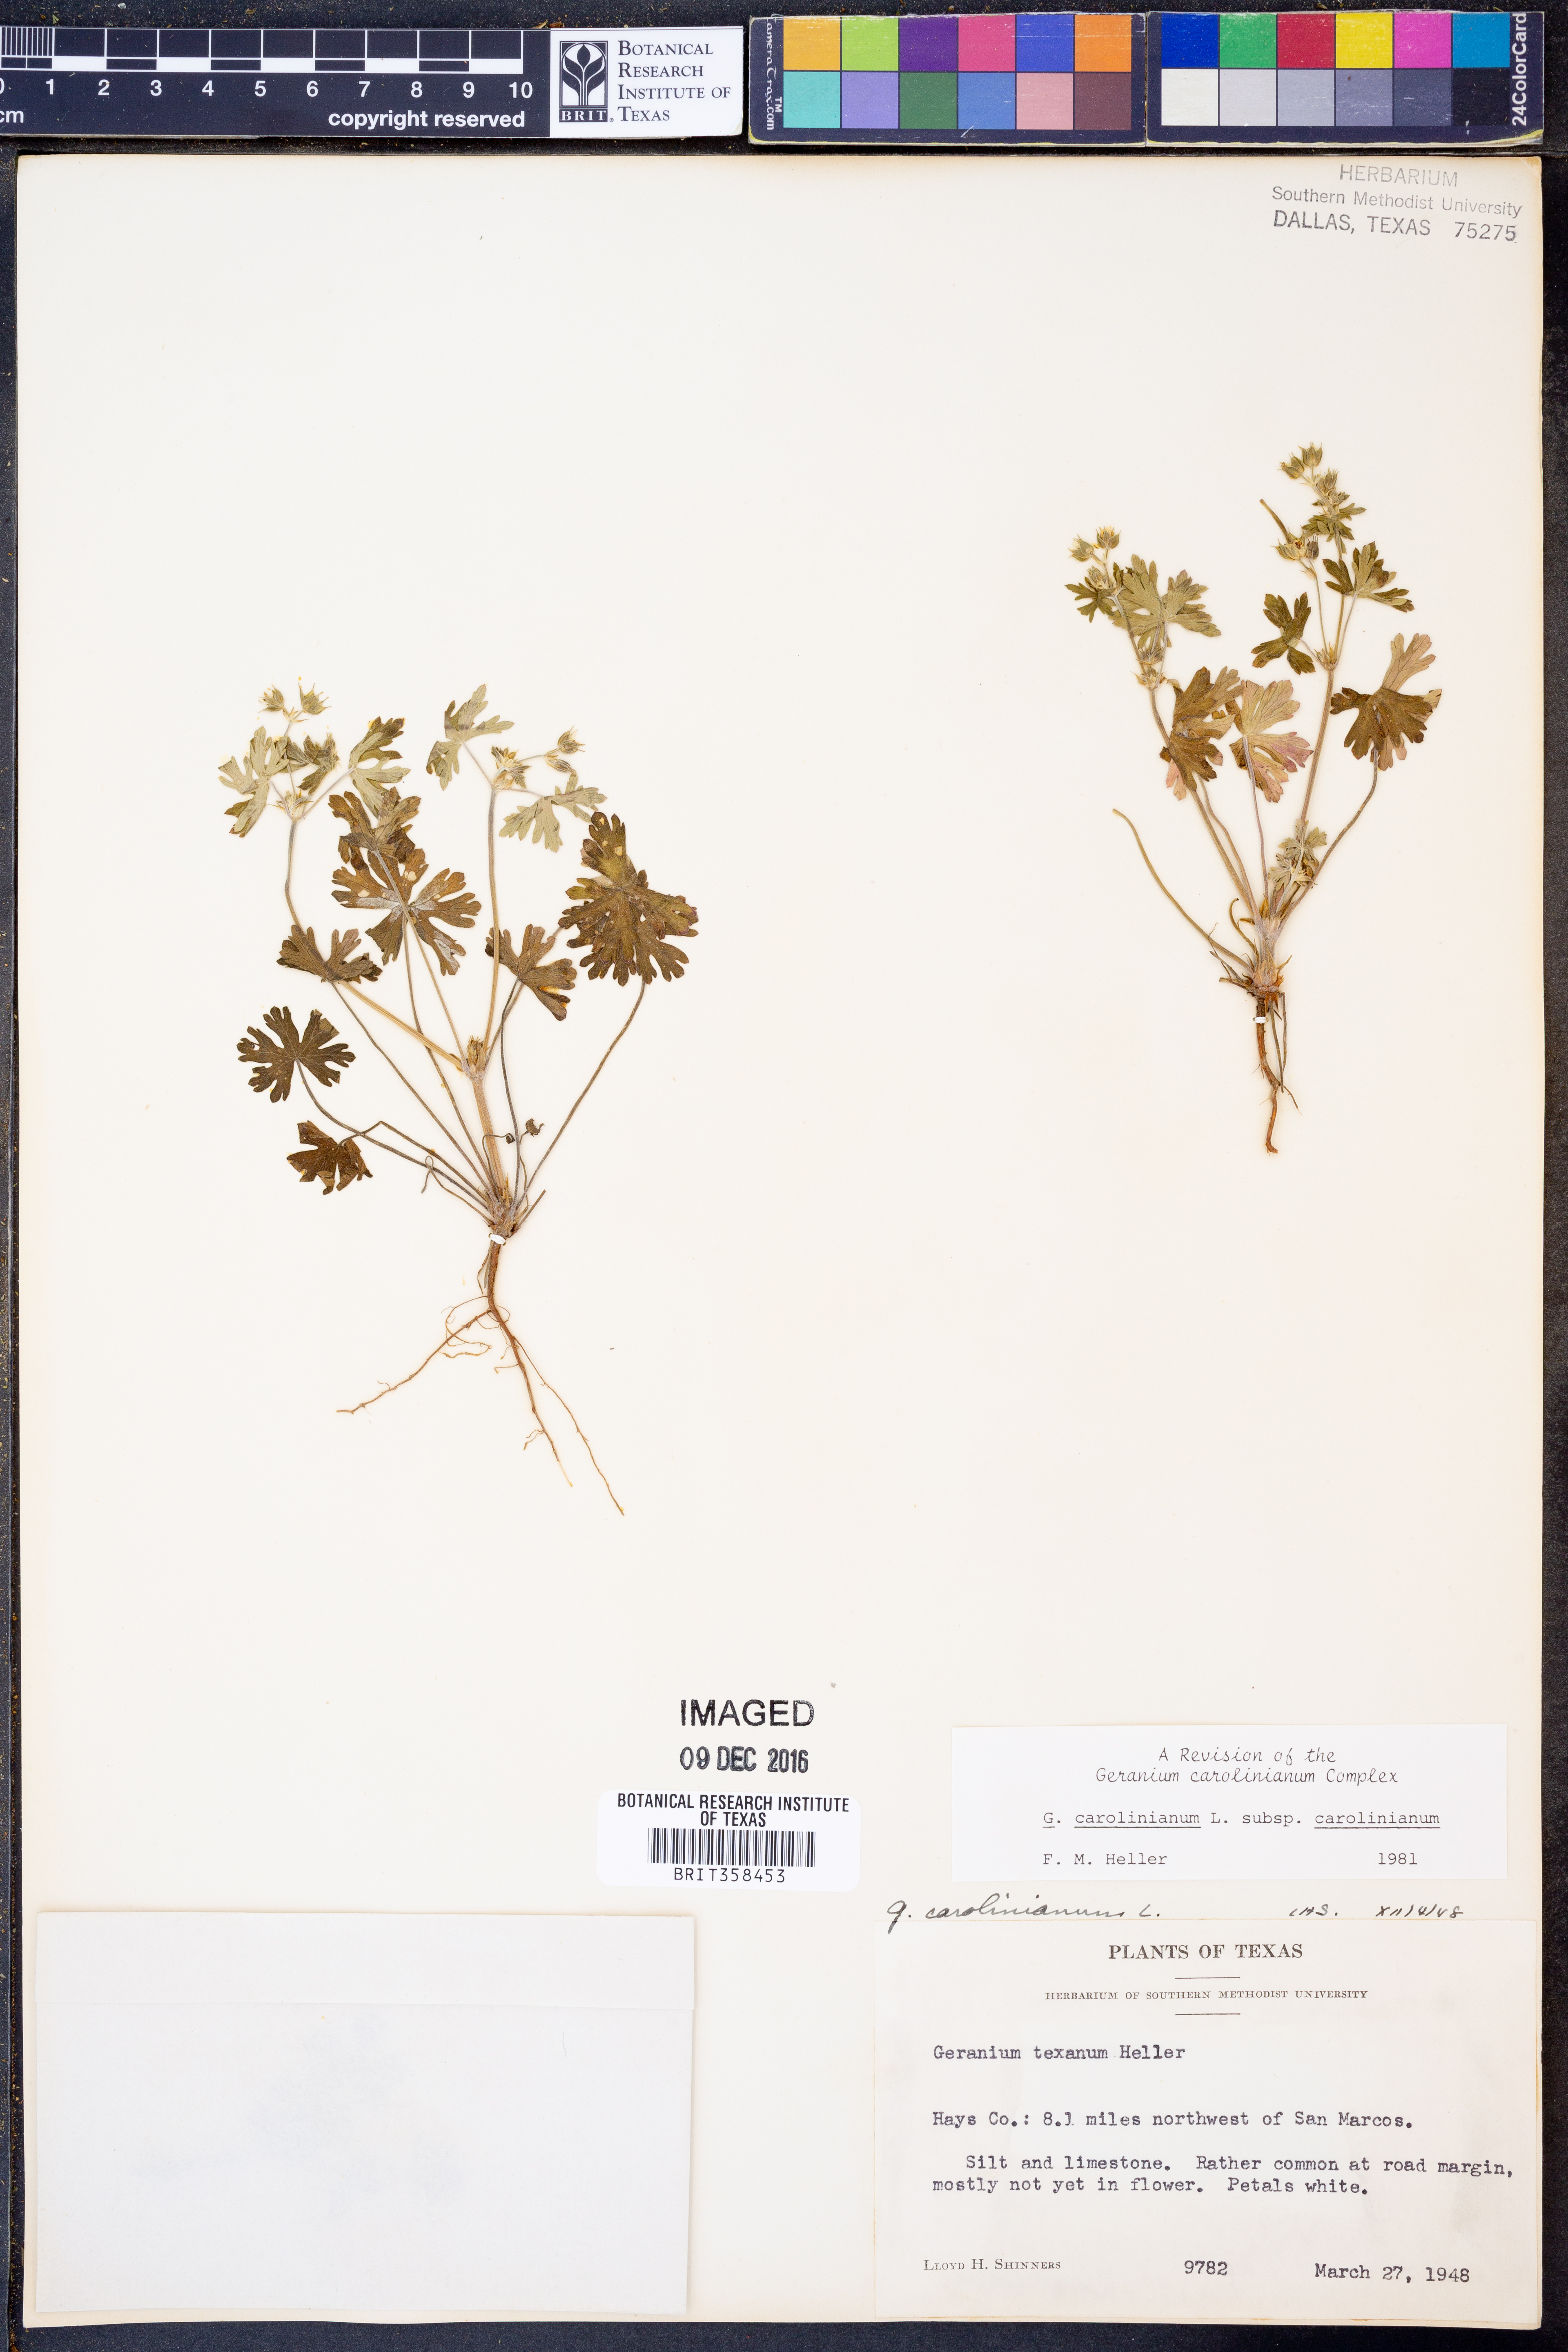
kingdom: Plantae
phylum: Tracheophyta
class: Magnoliopsida
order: Geraniales
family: Geraniaceae
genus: Geranium
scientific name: Geranium carolinianum
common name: Carolina crane's-bill
